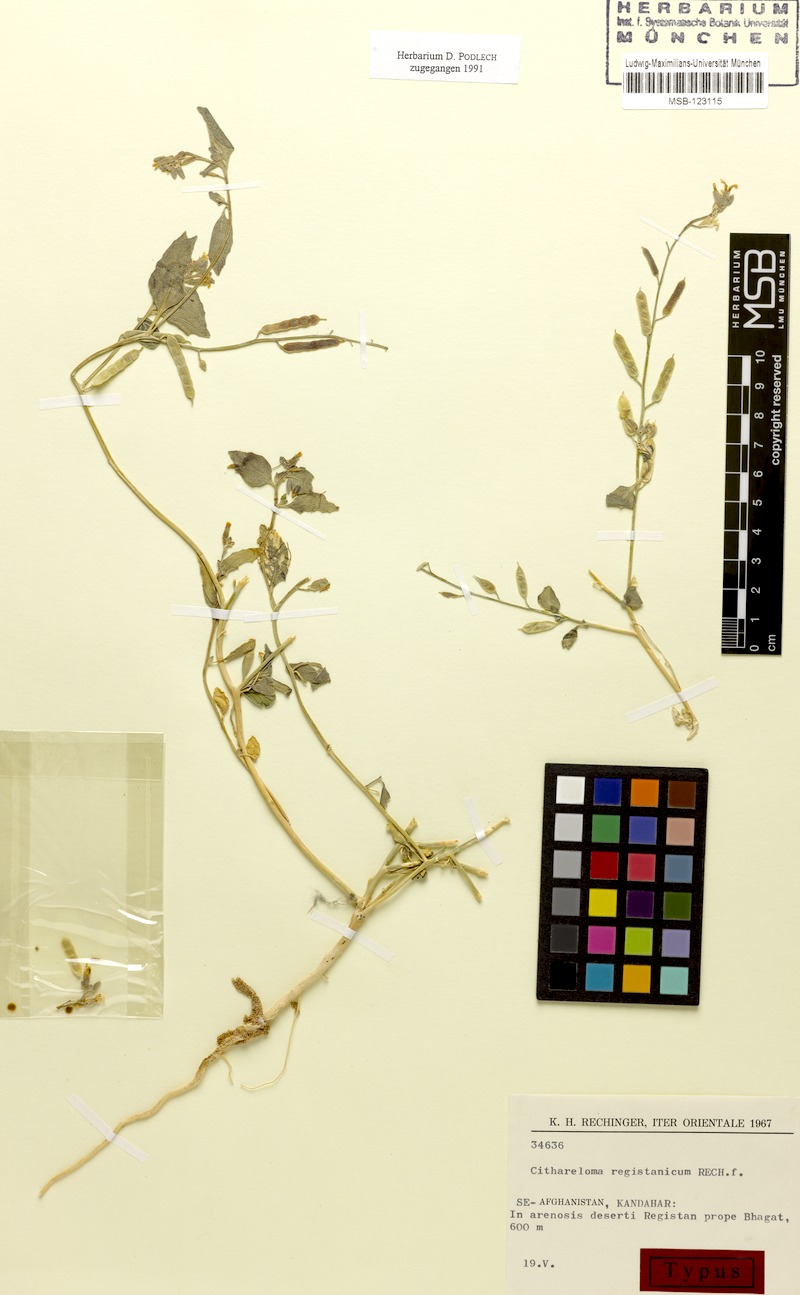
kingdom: Plantae
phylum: Tracheophyta
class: Magnoliopsida
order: Brassicales
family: Brassicaceae
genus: Cithareloma
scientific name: Cithareloma lehmannii
